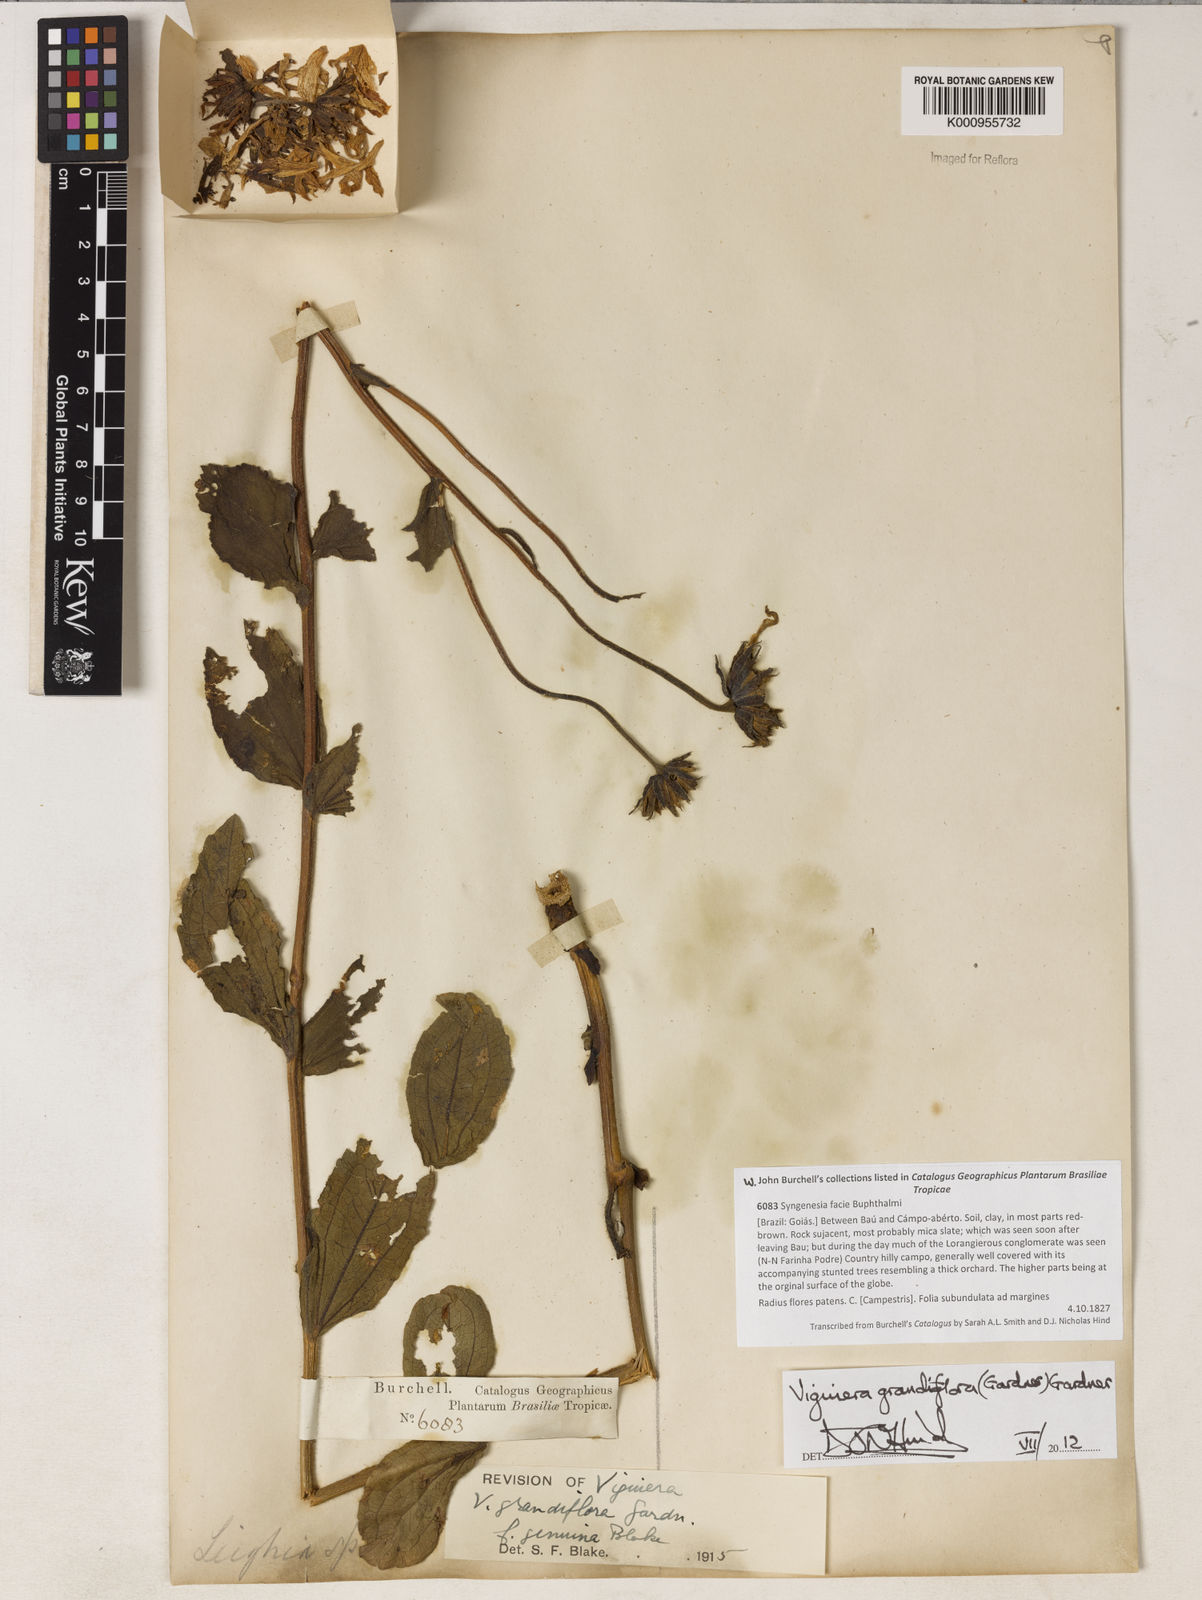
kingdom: Plantae
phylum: Tracheophyta
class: Magnoliopsida
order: Asterales
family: Asteraceae
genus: Aldama
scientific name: Aldama grandiflora
